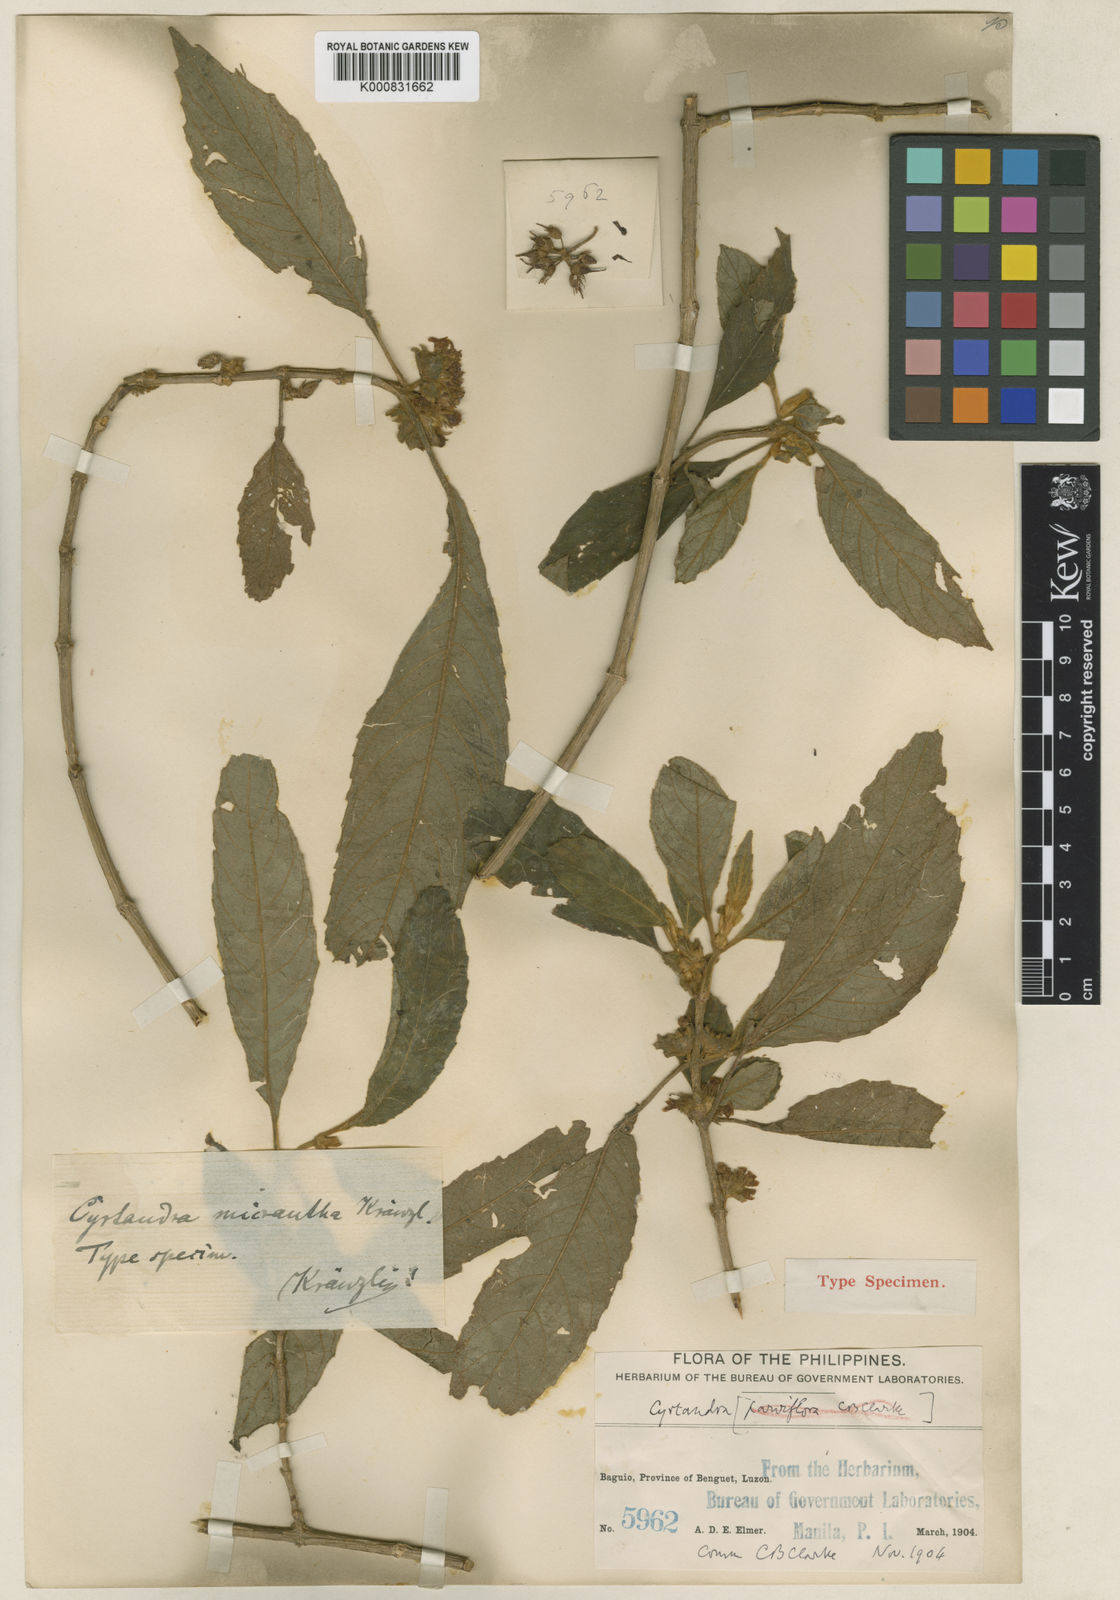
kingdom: Plantae
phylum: Tracheophyta
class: Magnoliopsida
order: Lamiales
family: Gesneriaceae
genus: Cyrtandra
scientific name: Cyrtandra parviflora
